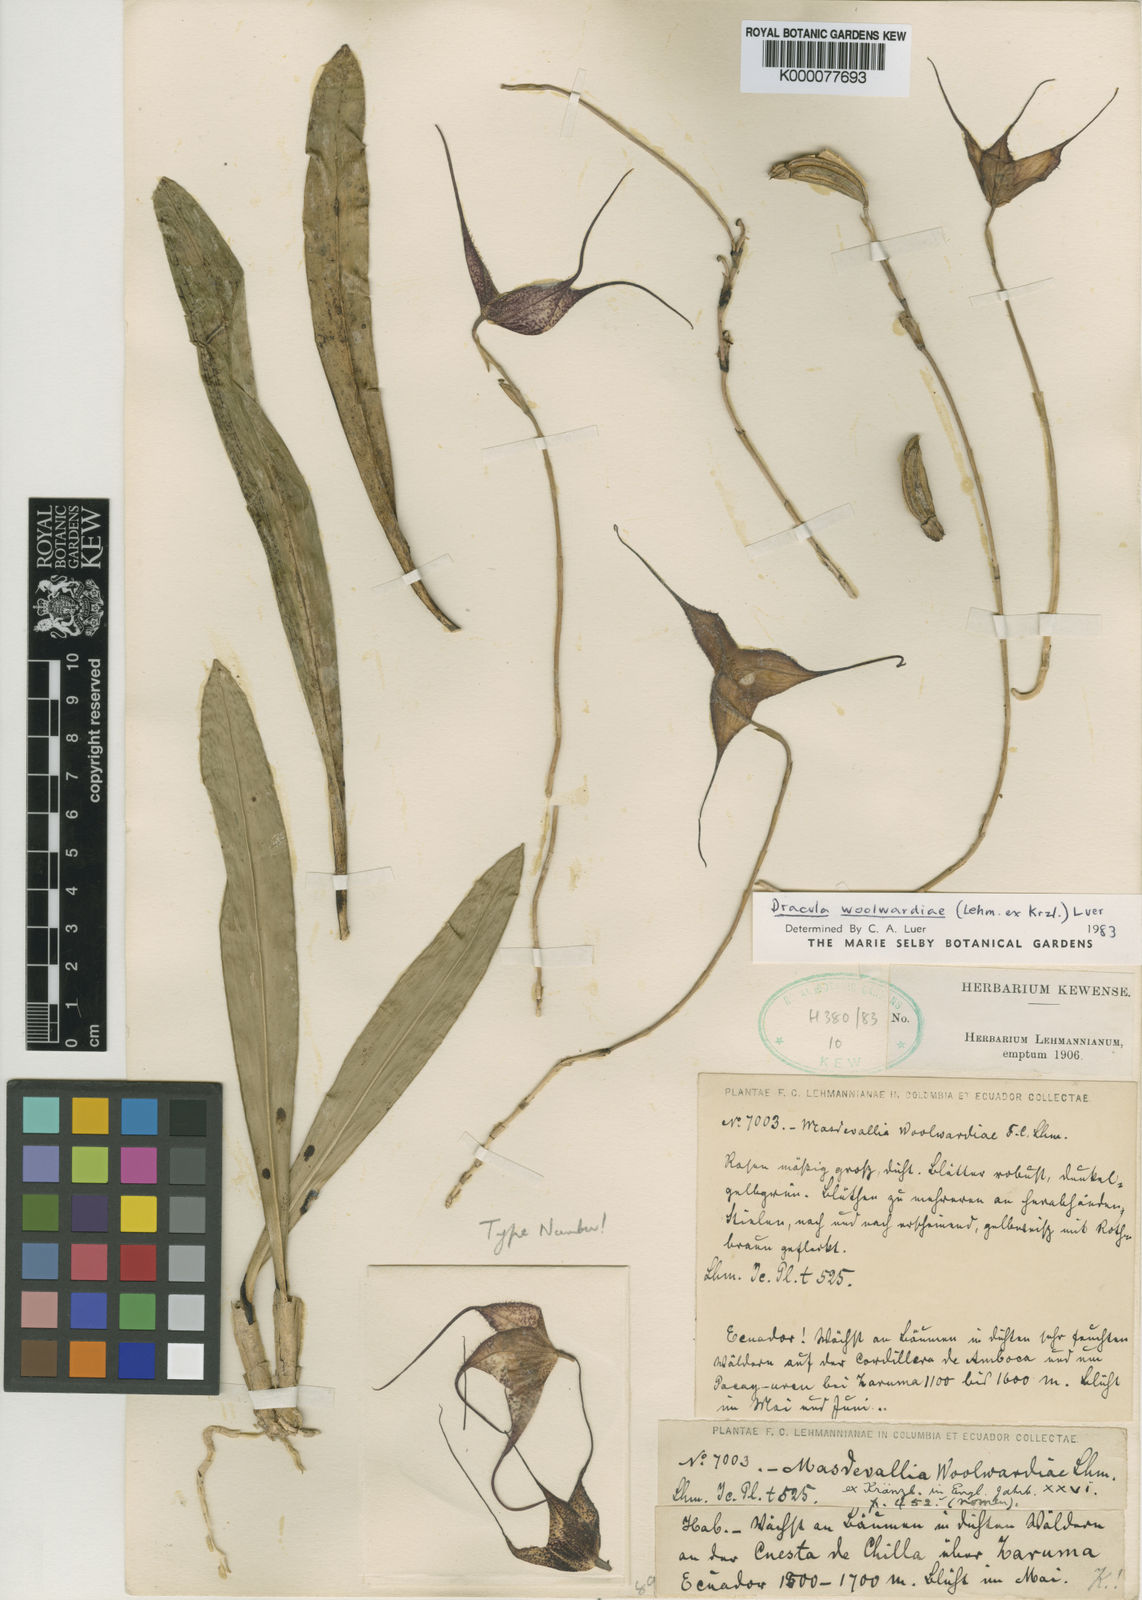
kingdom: Plantae
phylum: Tracheophyta
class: Liliopsida
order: Asparagales
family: Orchidaceae
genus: Dracula
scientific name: Dracula woolwardiae
